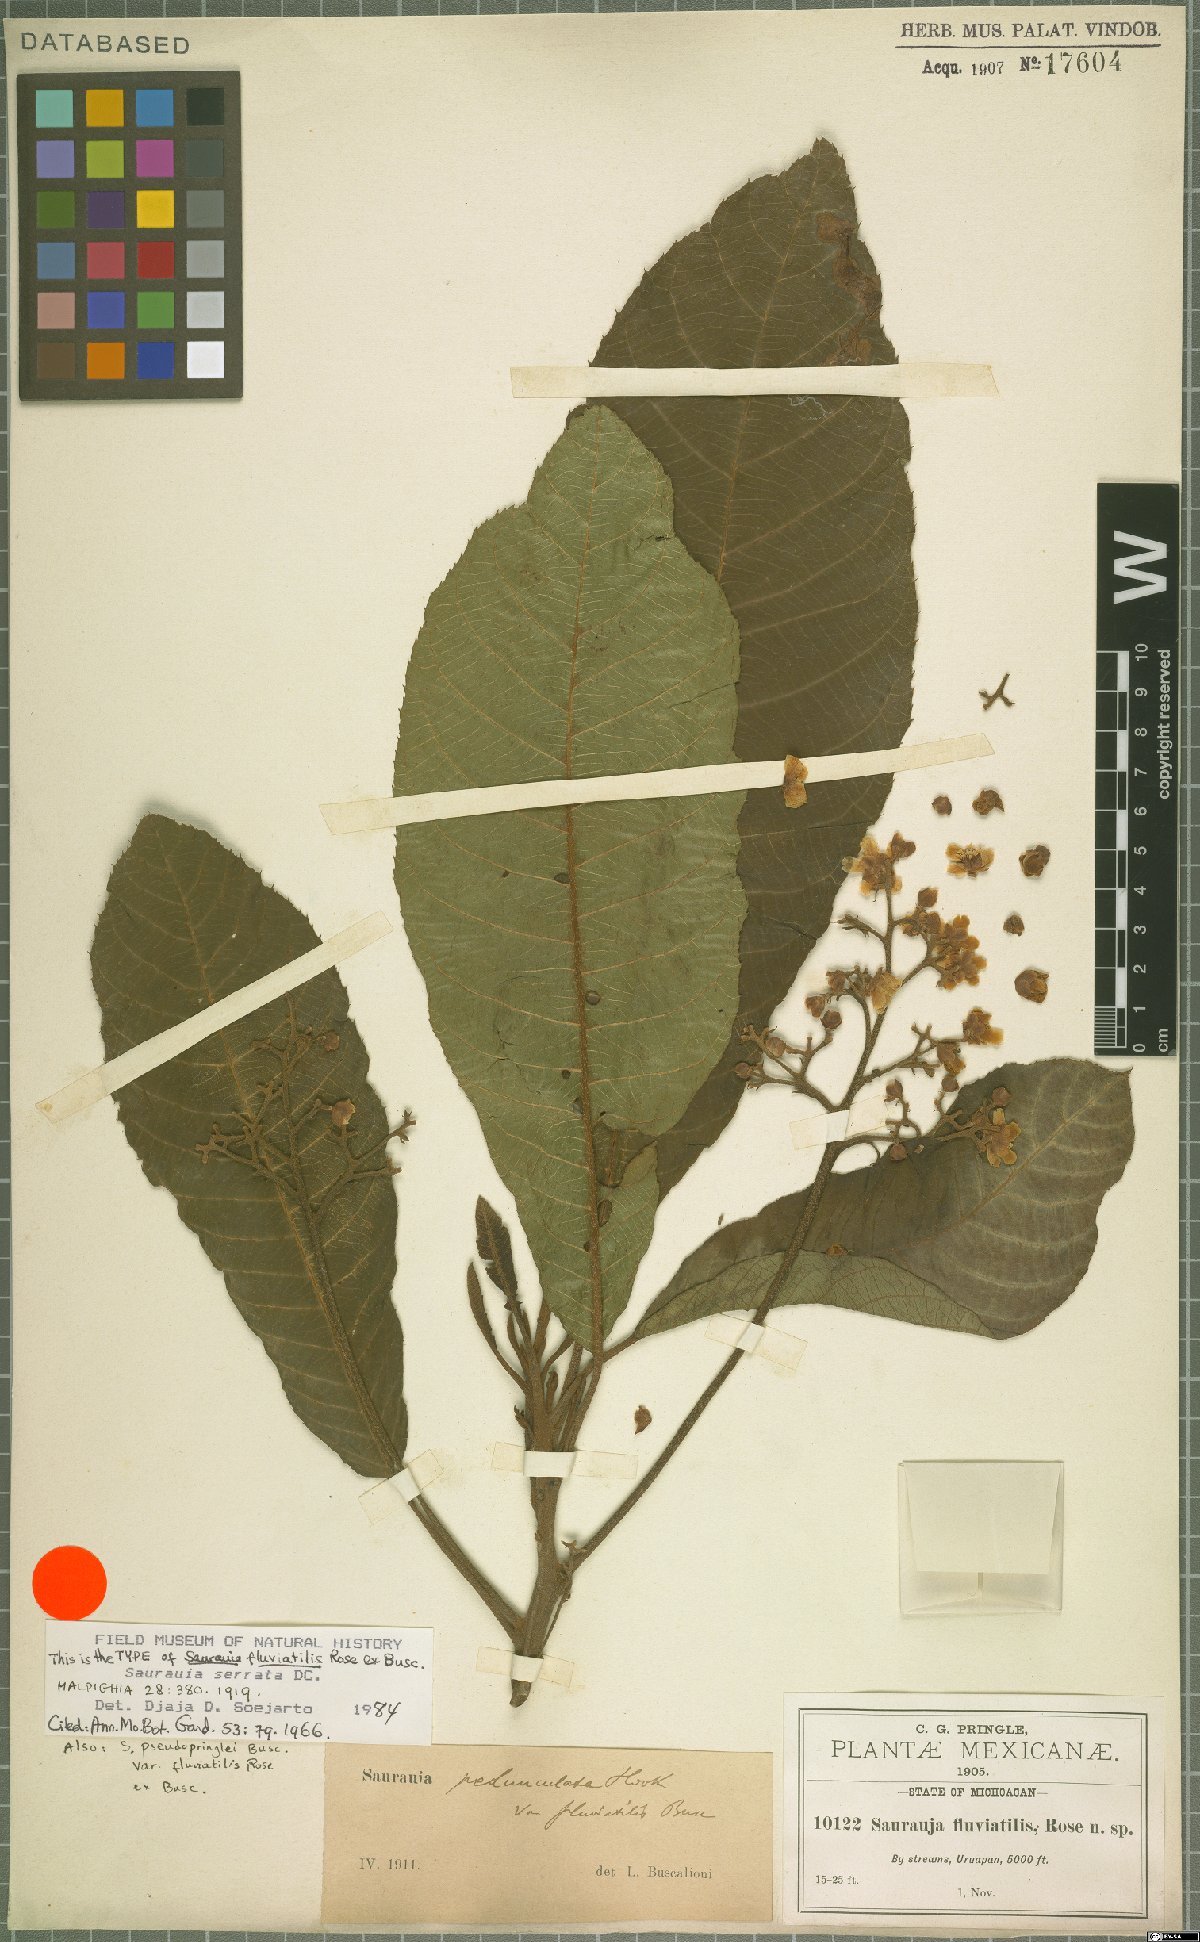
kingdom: Plantae
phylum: Tracheophyta
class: Magnoliopsida
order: Ericales
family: Actinidiaceae
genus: Saurauia
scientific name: Saurauia serrata
